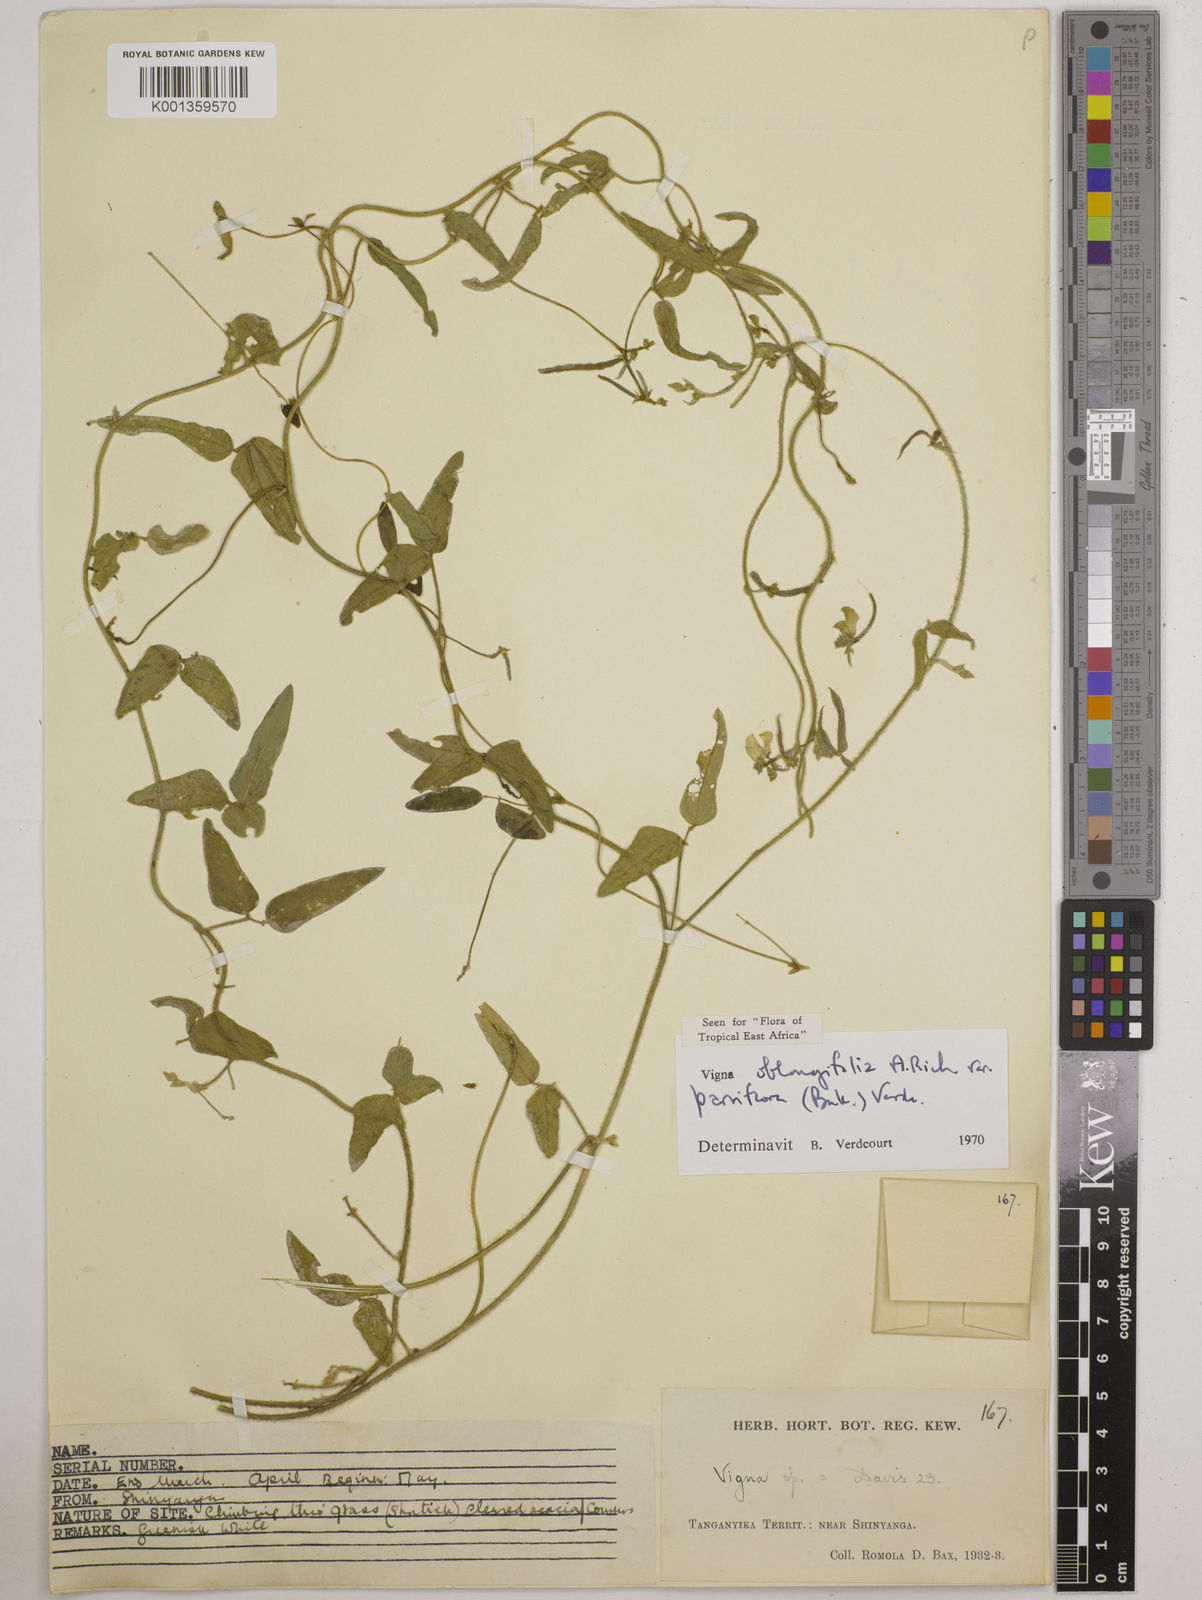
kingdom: Plantae
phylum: Tracheophyta
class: Magnoliopsida
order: Fabales
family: Fabaceae
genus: Vigna
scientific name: Vigna
